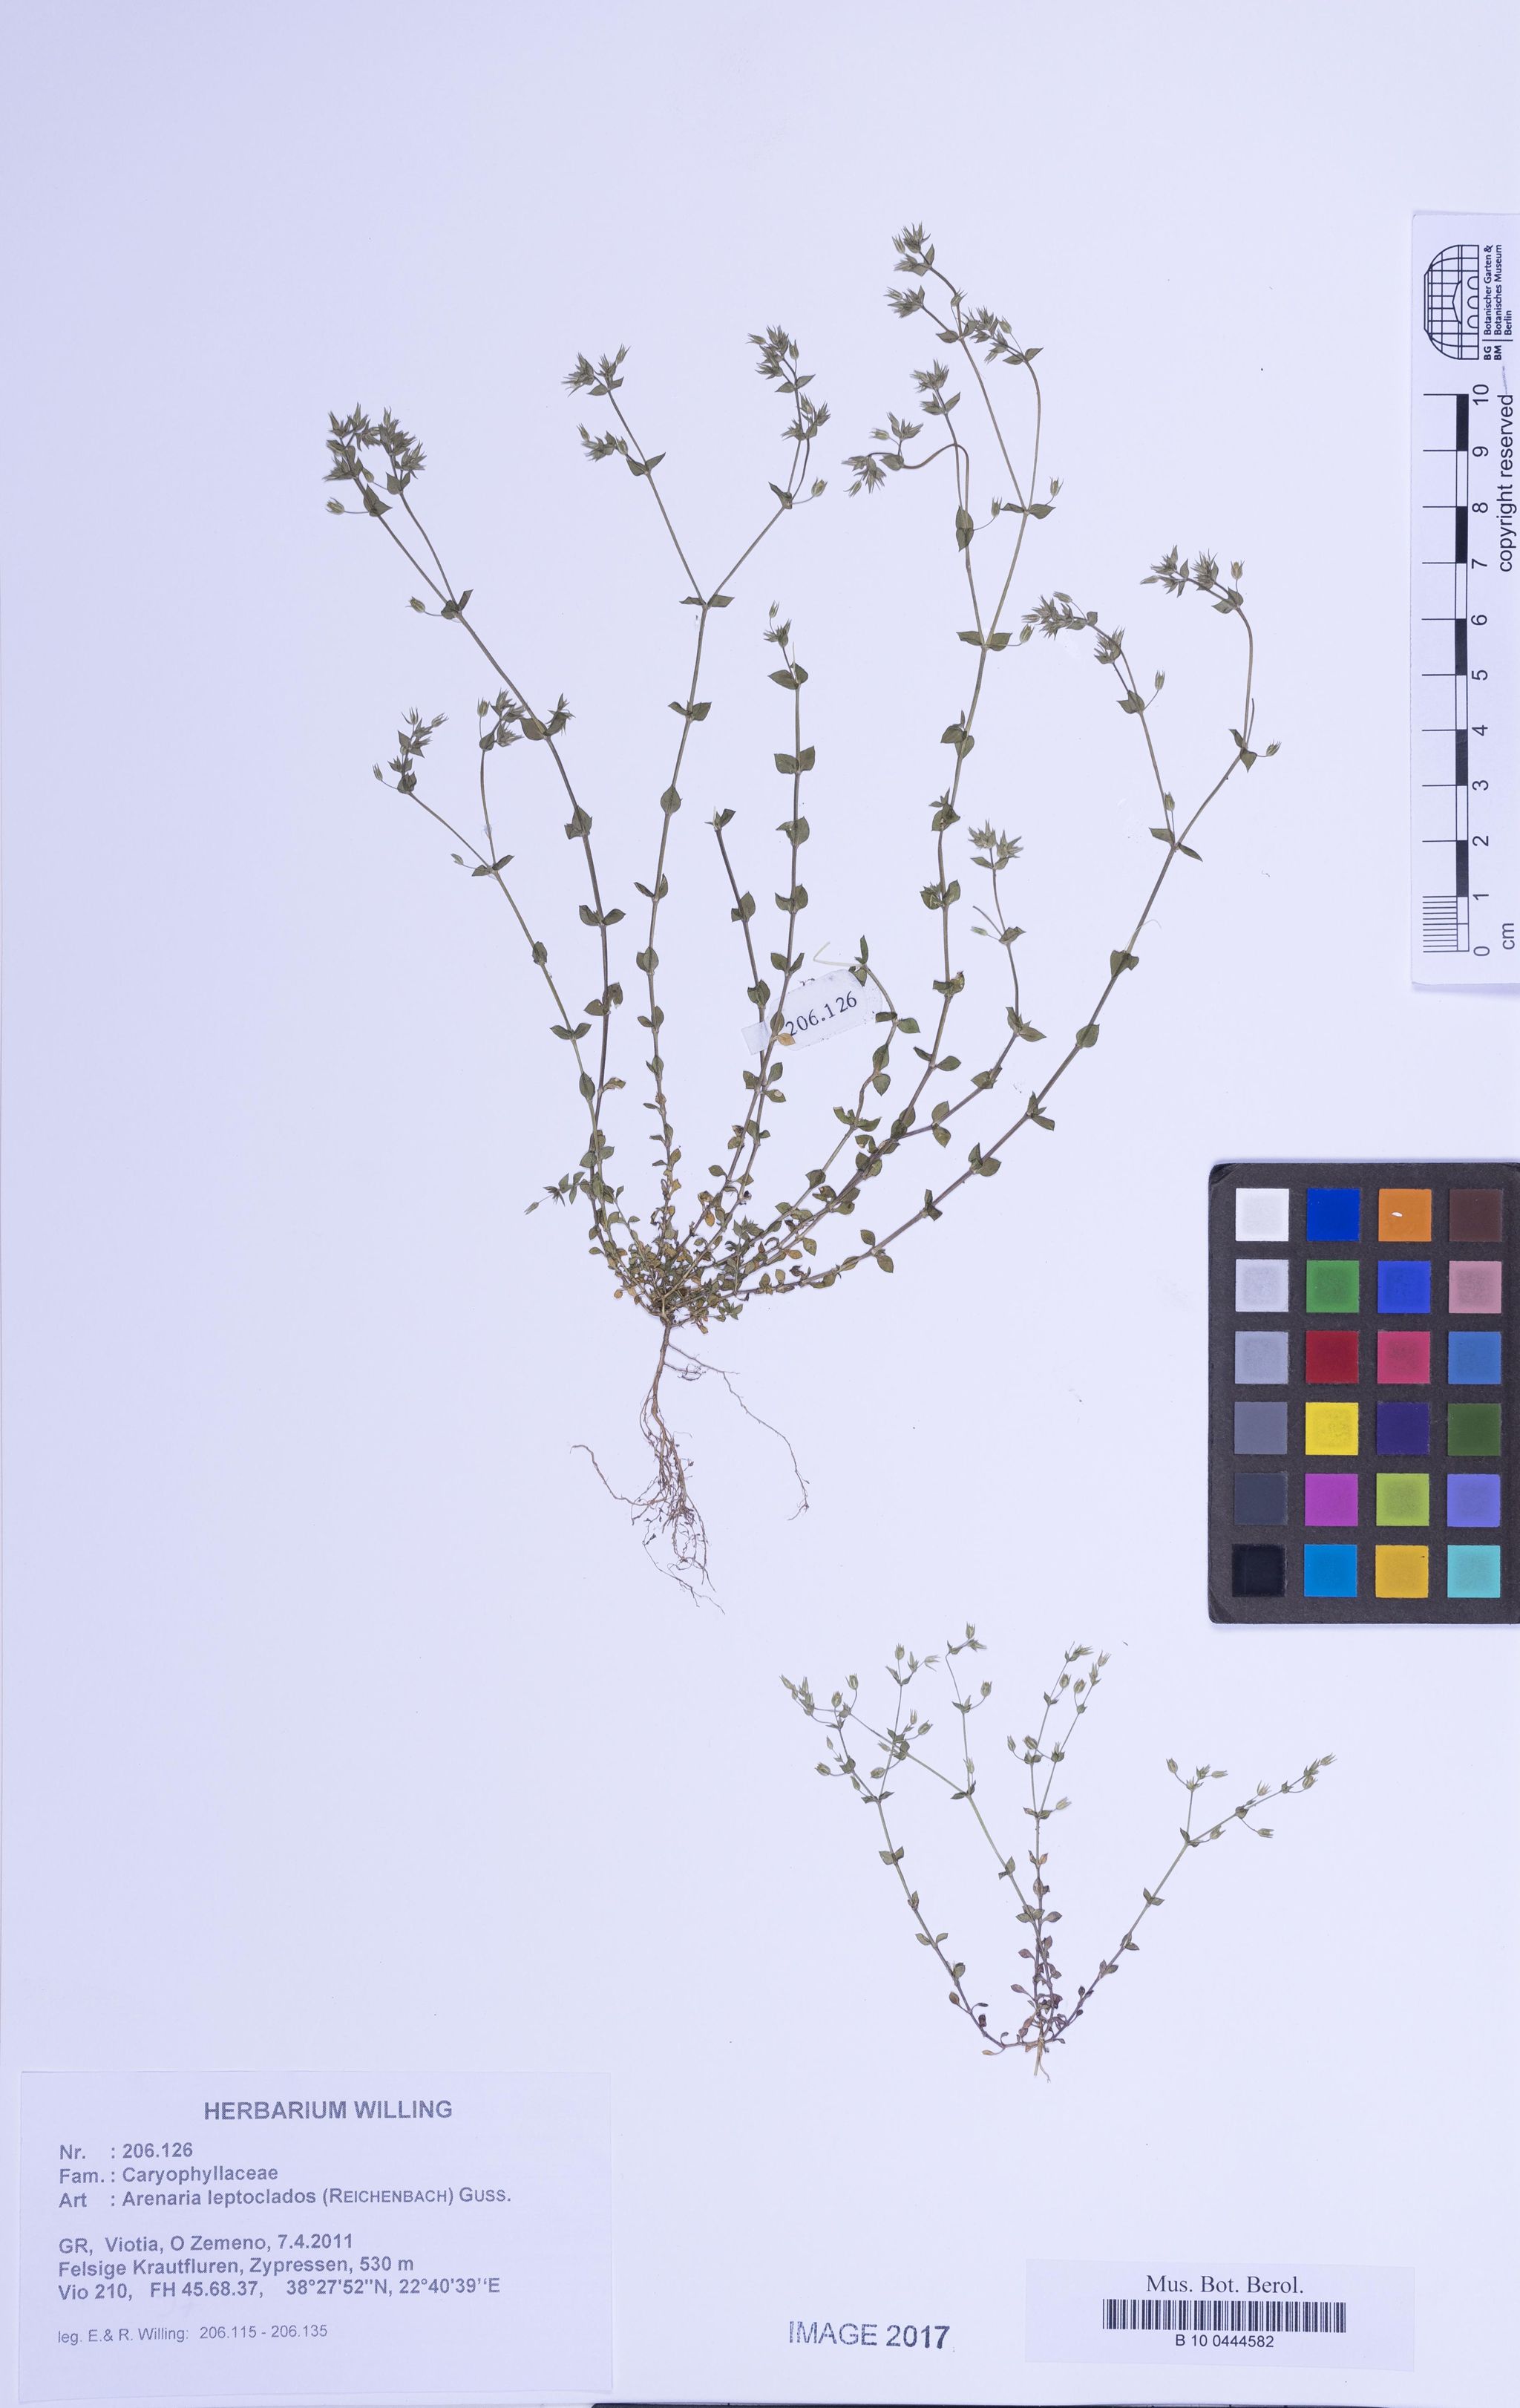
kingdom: Plantae
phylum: Tracheophyta
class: Magnoliopsida
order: Caryophyllales
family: Caryophyllaceae
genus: Arenaria
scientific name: Arenaria leptoclados
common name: Thyme-leaved sandwort
